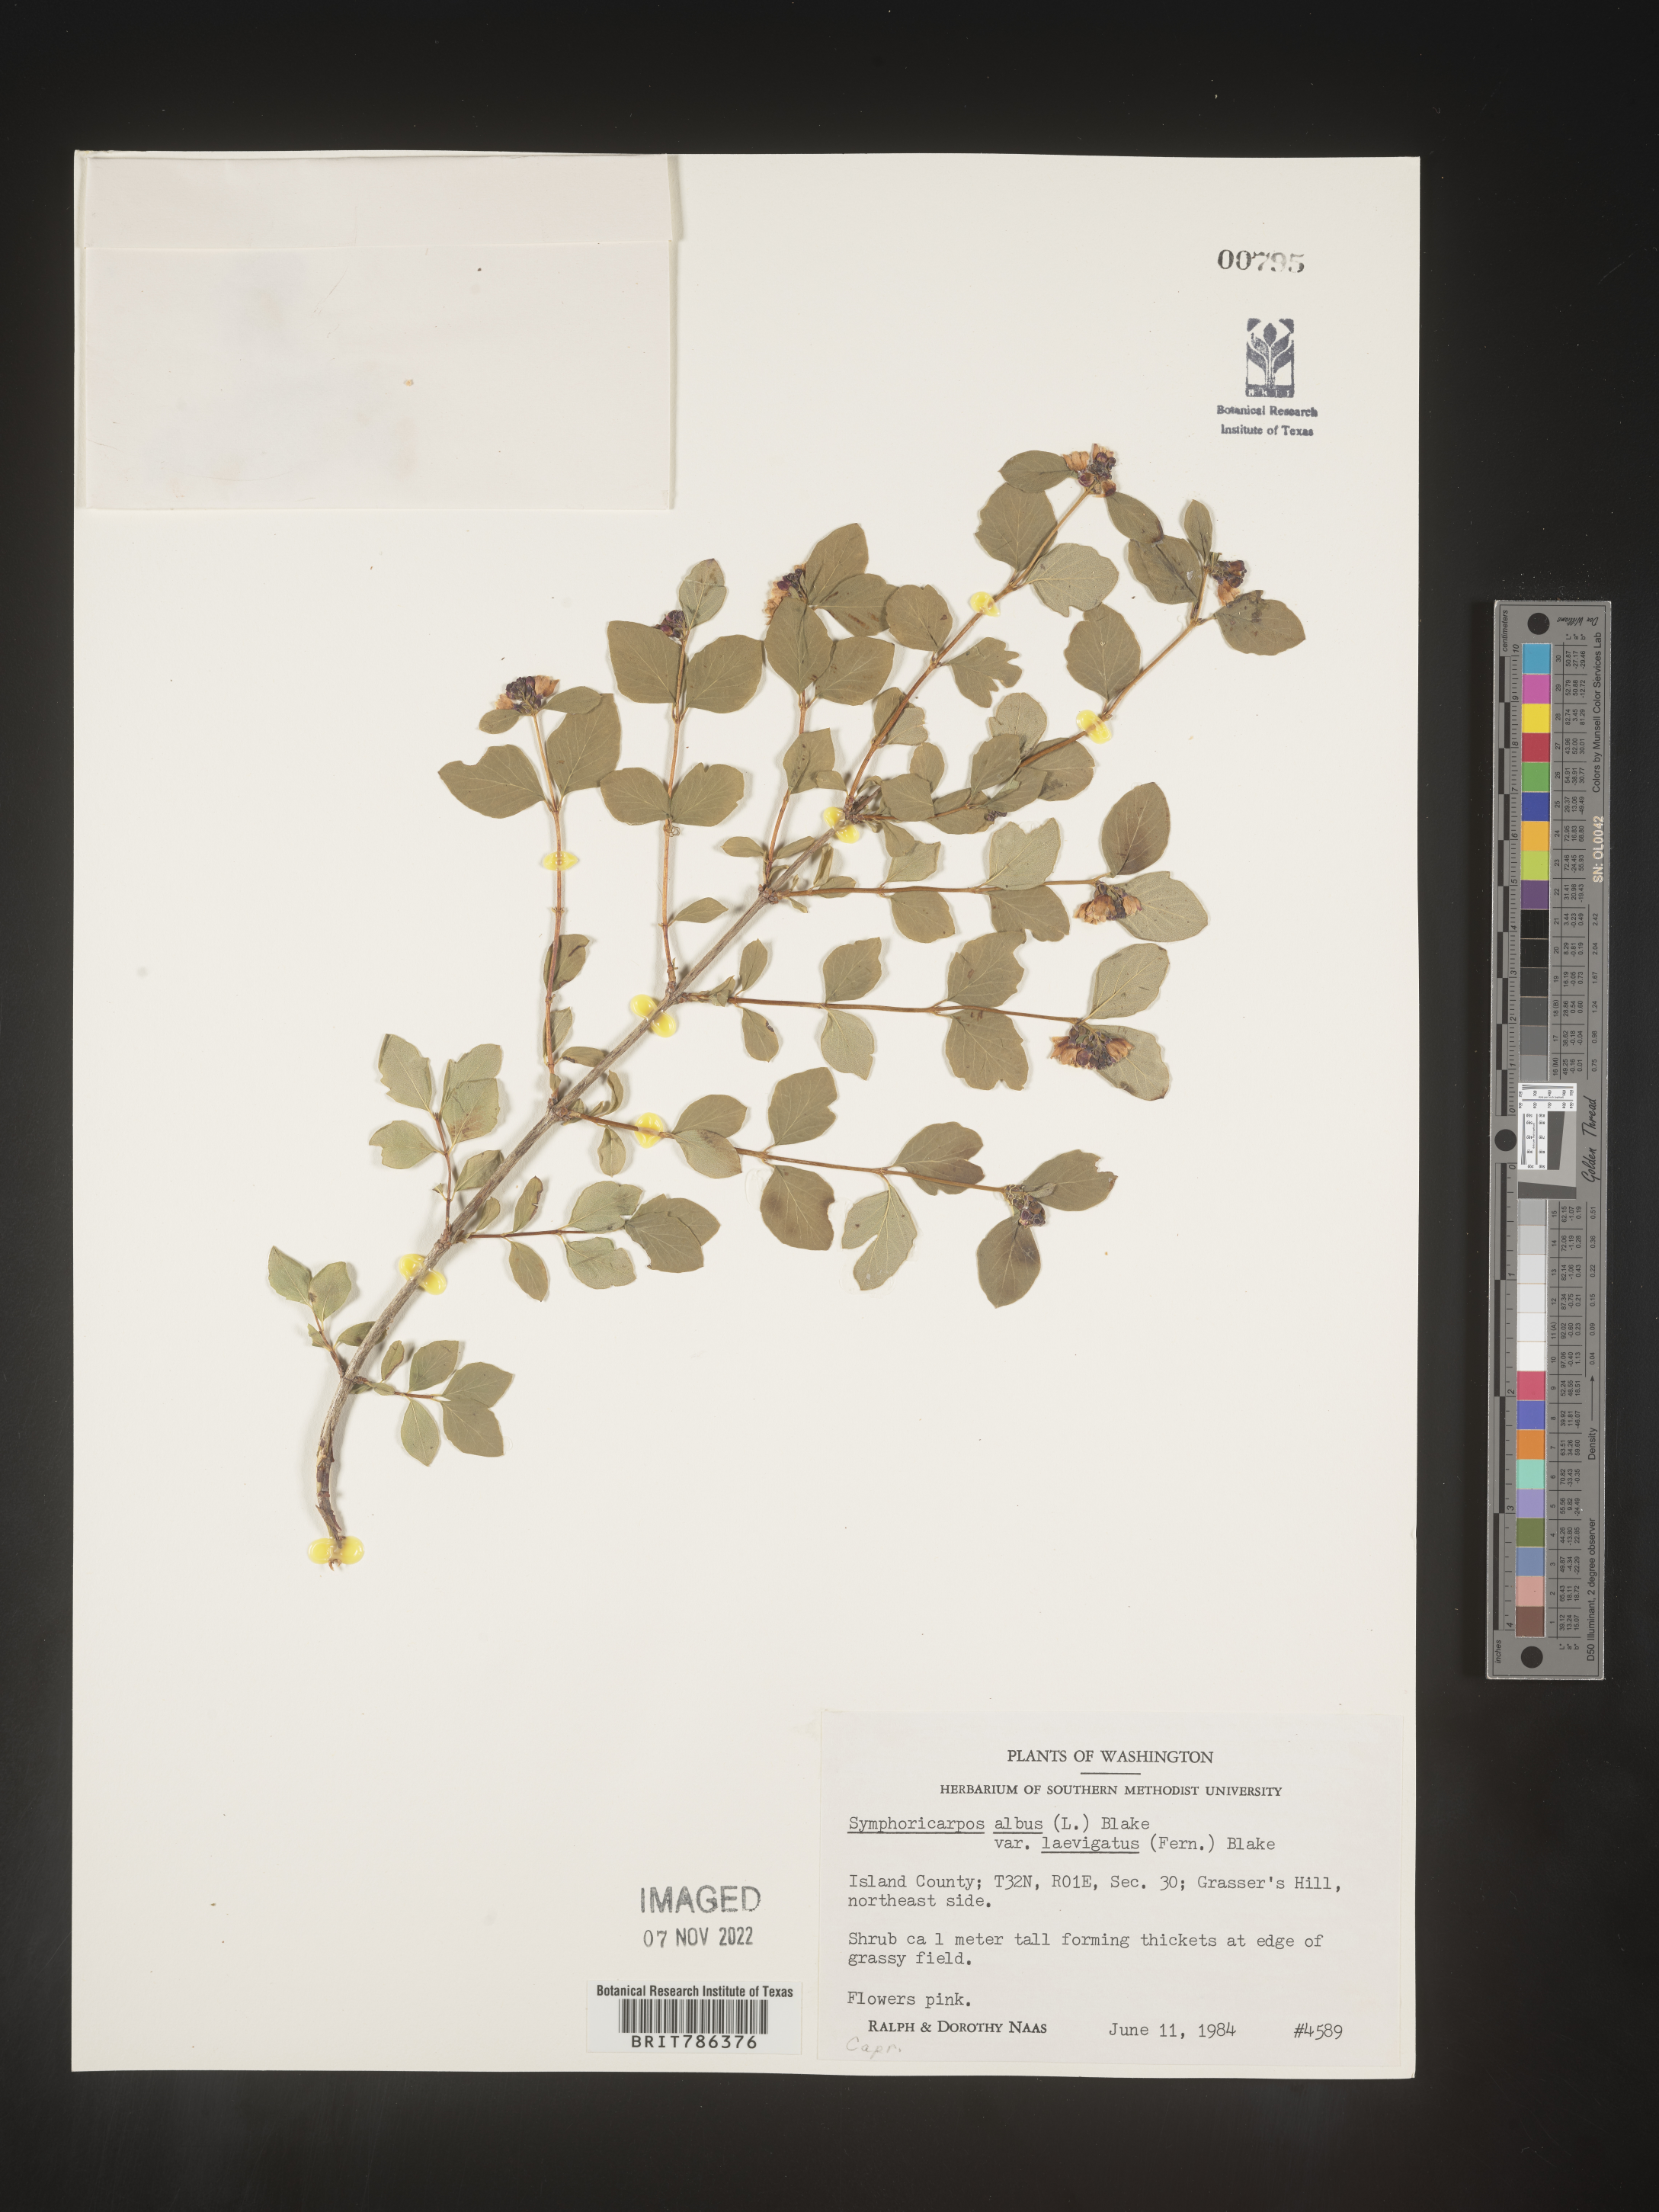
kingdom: Plantae
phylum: Tracheophyta
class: Magnoliopsida
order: Dipsacales
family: Caprifoliaceae
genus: Symphoricarpos
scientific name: Symphoricarpos albus
